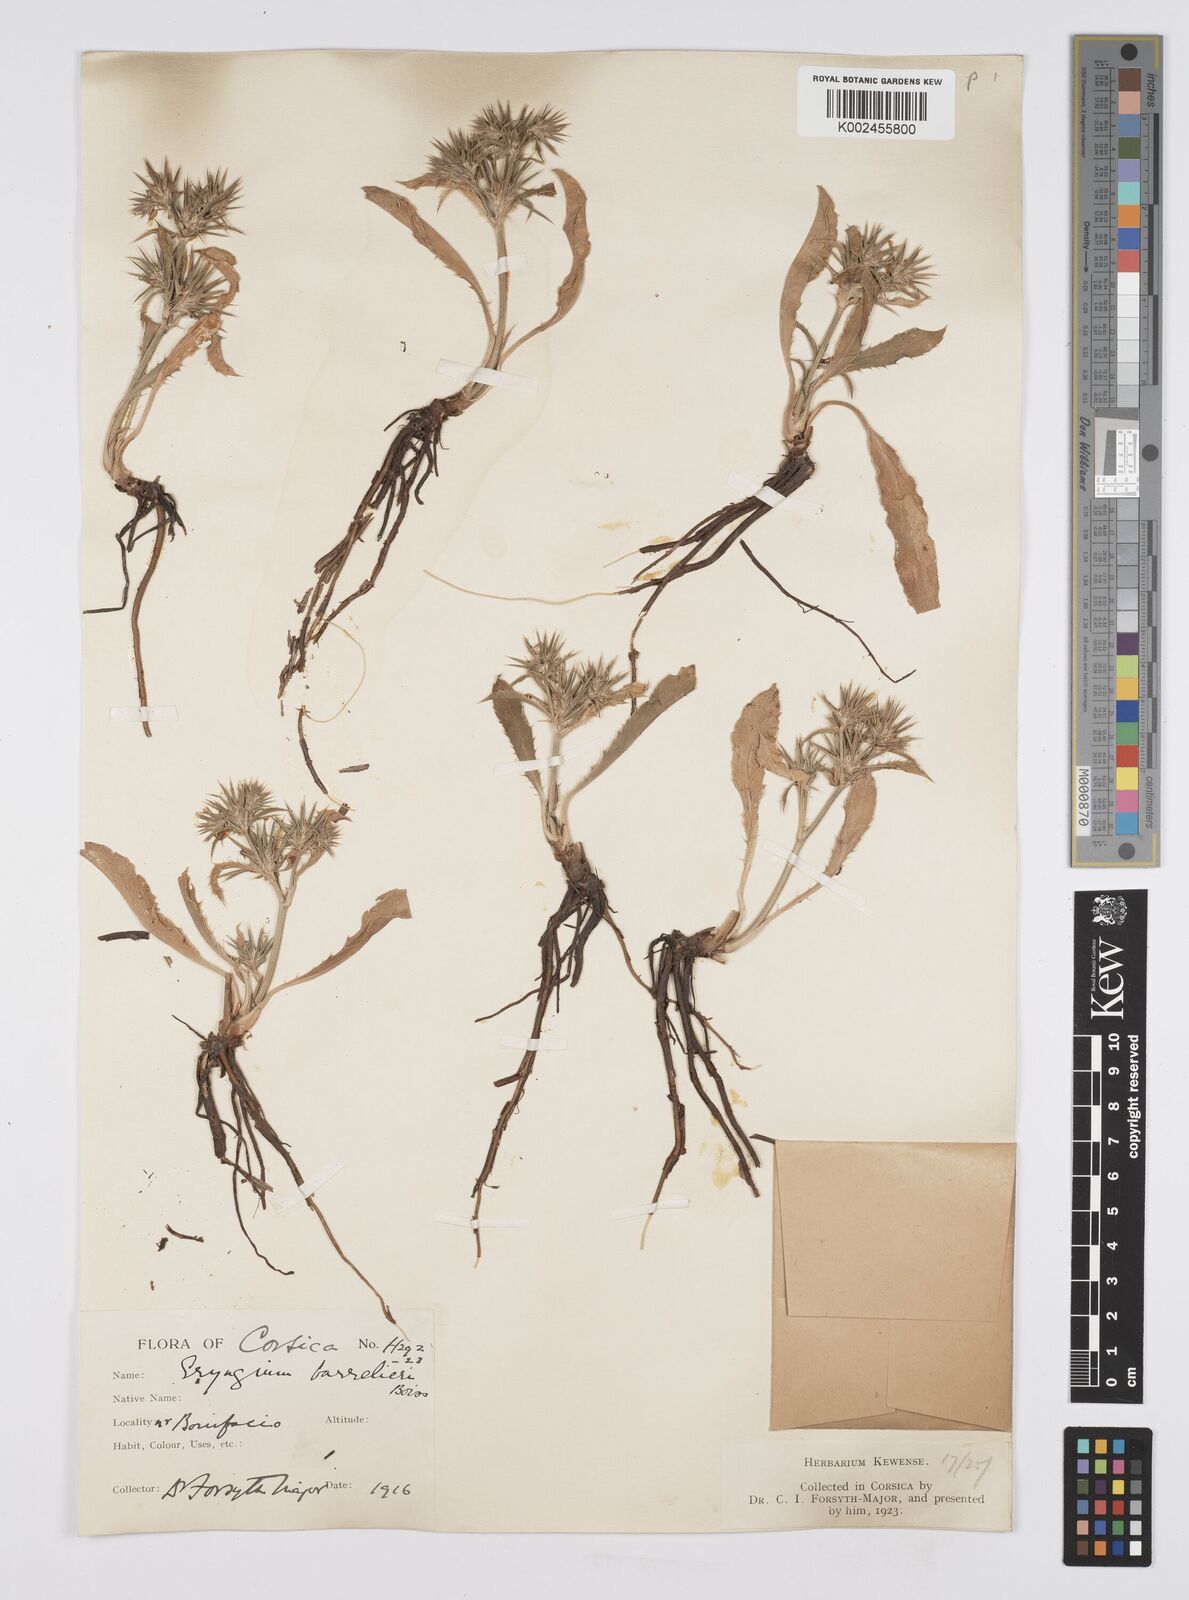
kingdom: Plantae
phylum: Tracheophyta
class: Magnoliopsida
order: Apiales
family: Apiaceae
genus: Eryngium
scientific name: Eryngium pusillum
